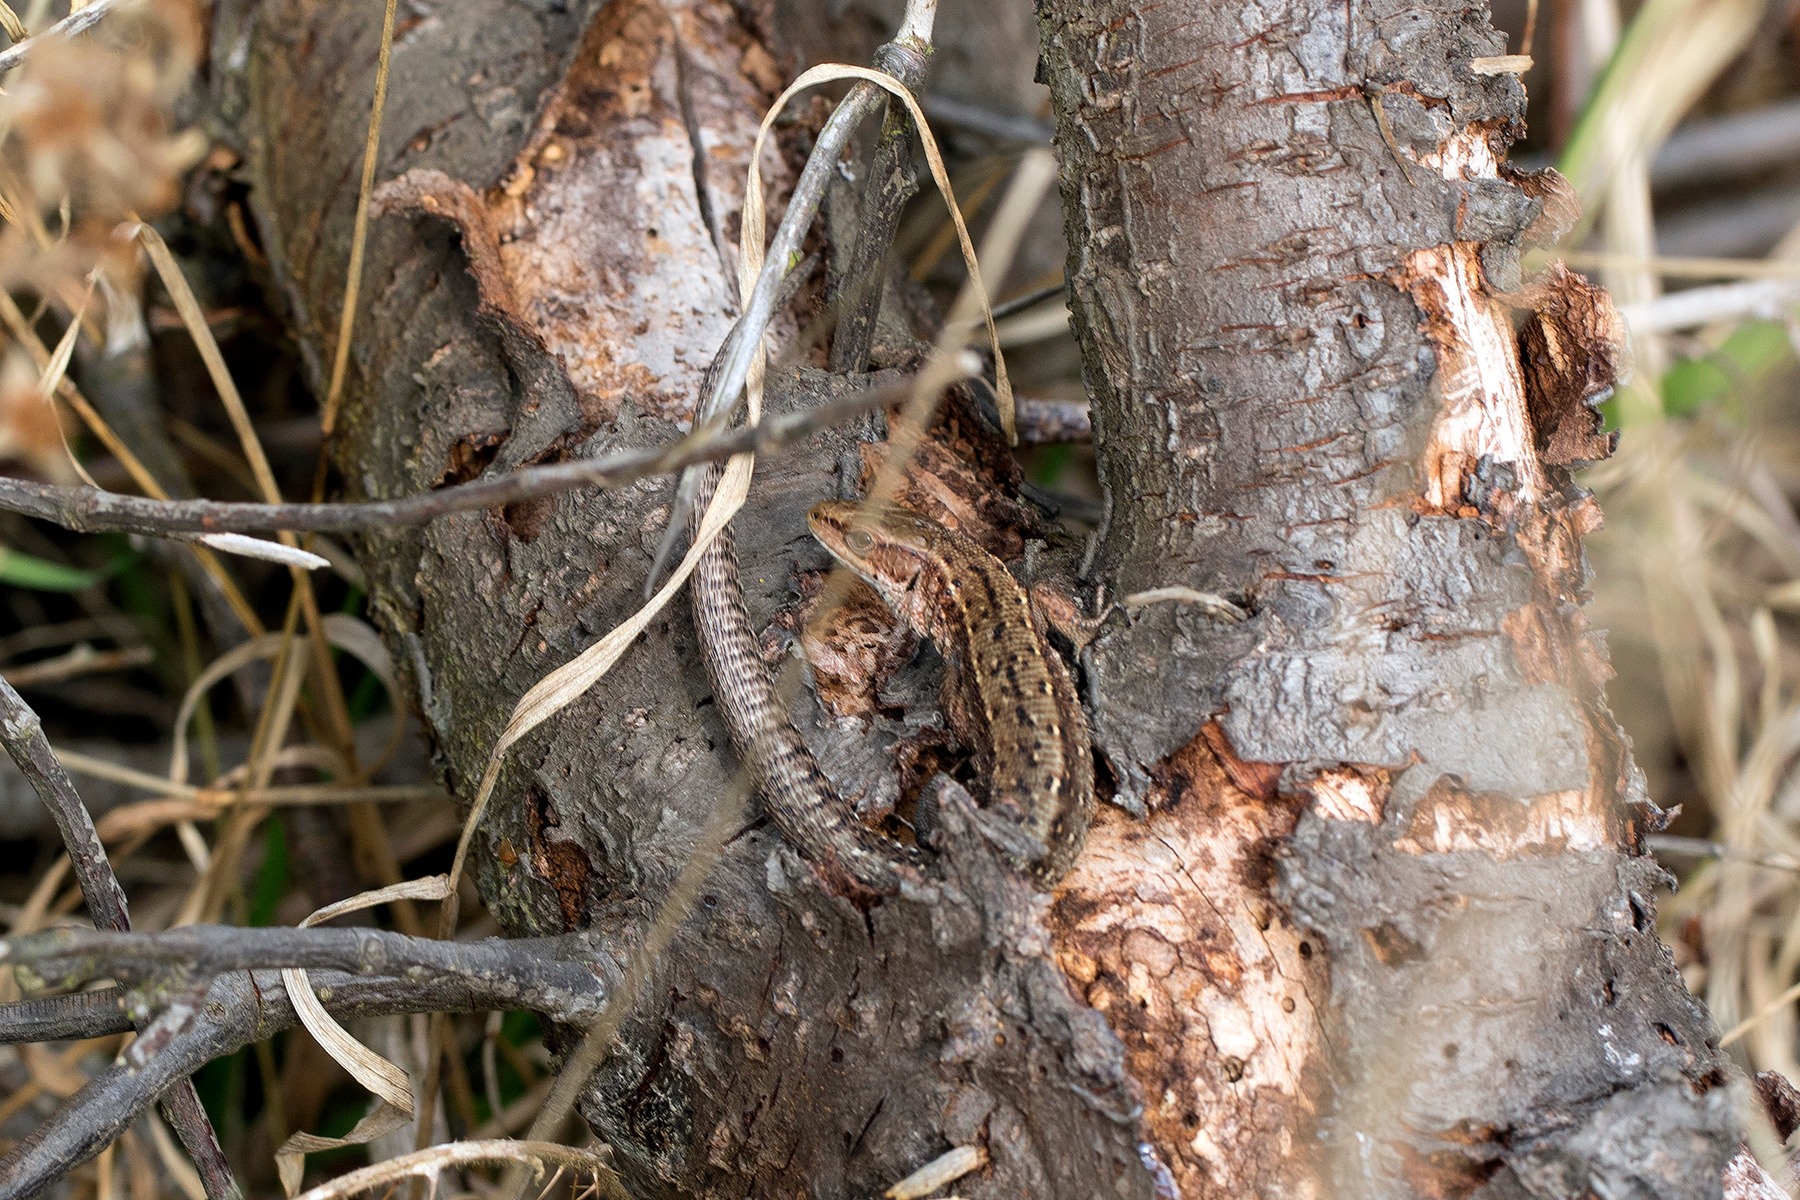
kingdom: Animalia
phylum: Chordata
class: Squamata
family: Lacertidae
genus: Zootoca
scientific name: Zootoca vivipara
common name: Skovfirben
